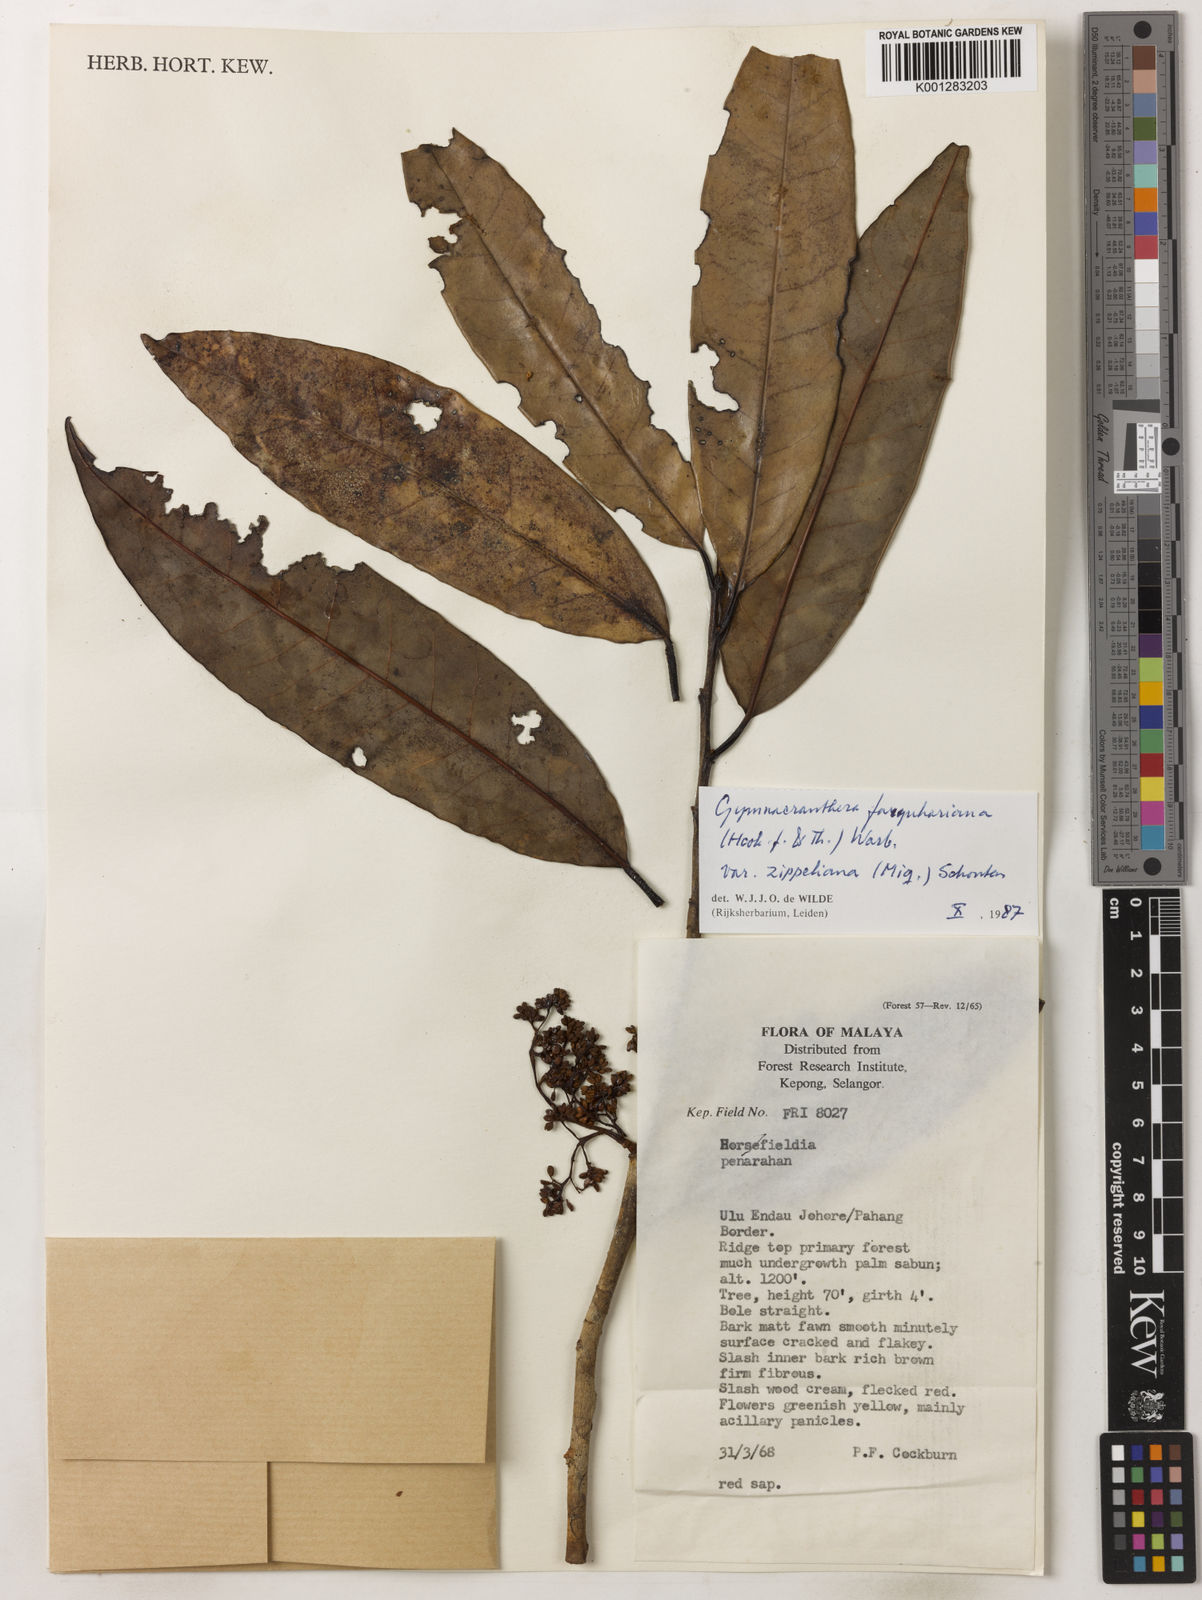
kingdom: Plantae
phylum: Tracheophyta
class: Magnoliopsida
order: Magnoliales
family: Myristicaceae
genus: Gymnacranthera
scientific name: Gymnacranthera farquhariana
